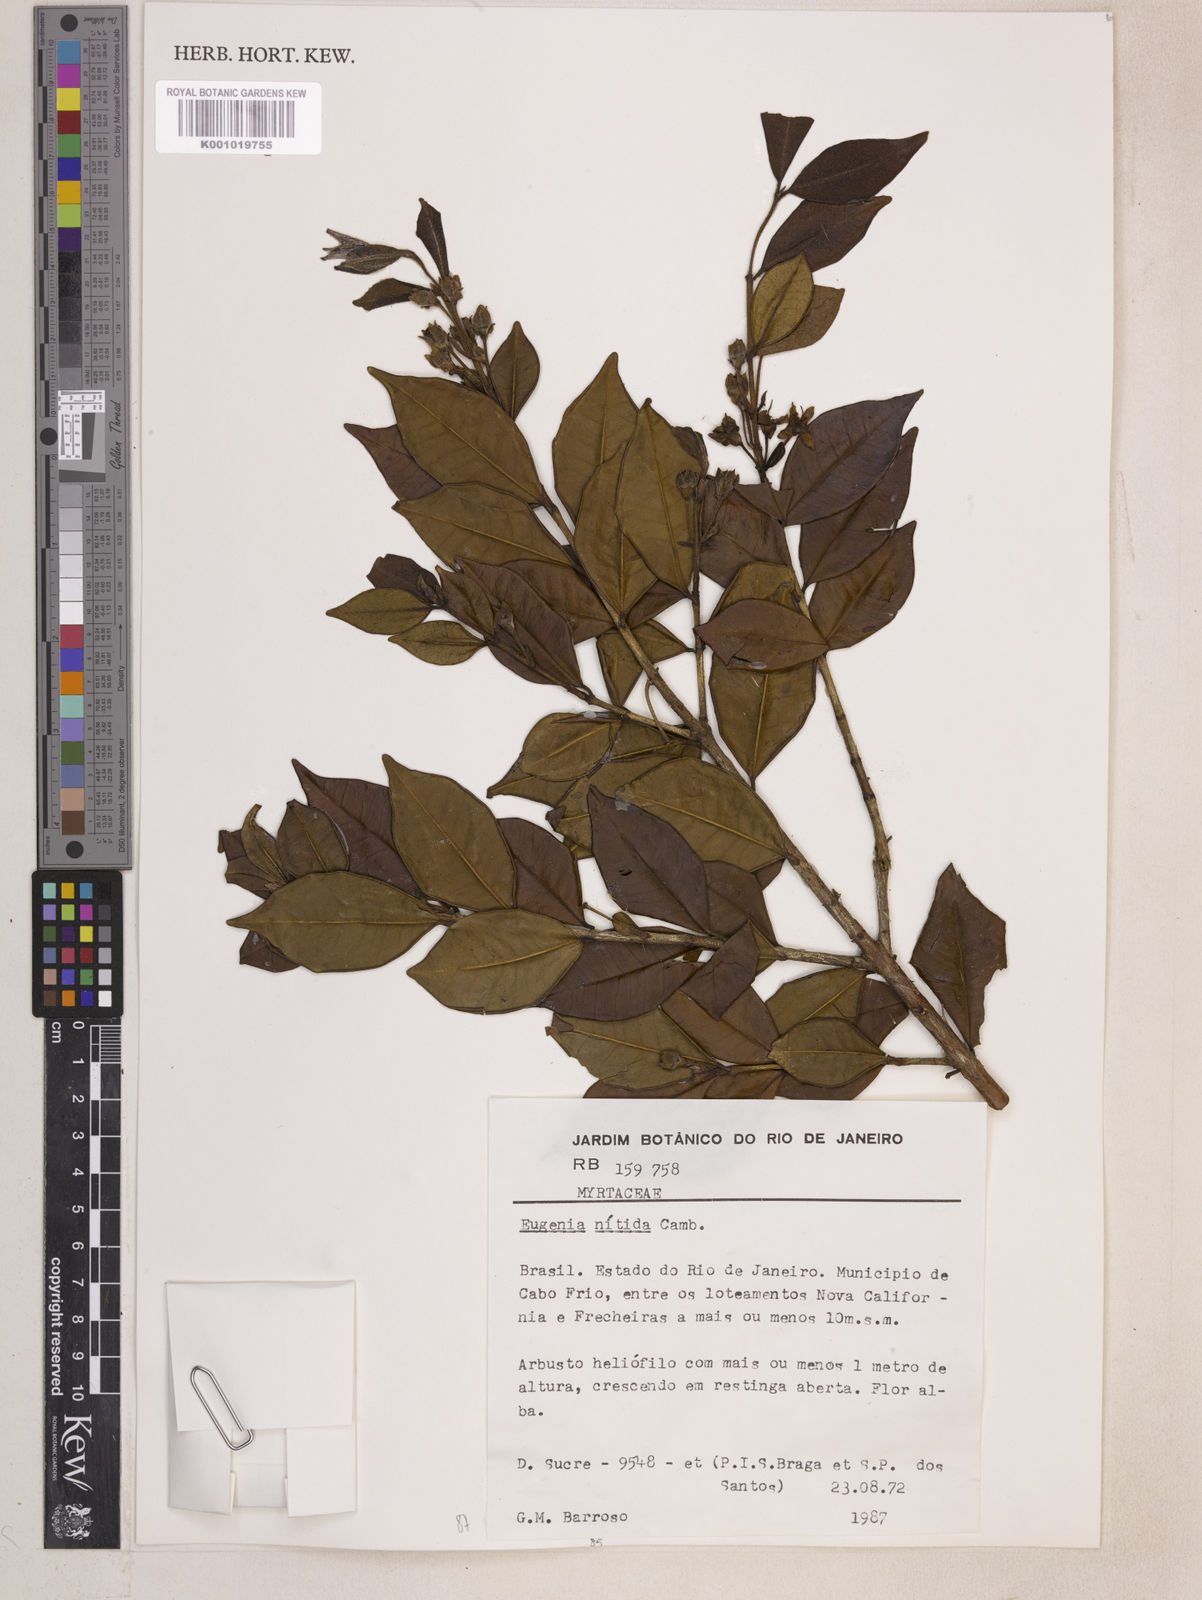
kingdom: Plantae
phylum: Tracheophyta
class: Magnoliopsida
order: Myrtales
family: Myrtaceae
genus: Eugenia
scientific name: Eugenia selloi
